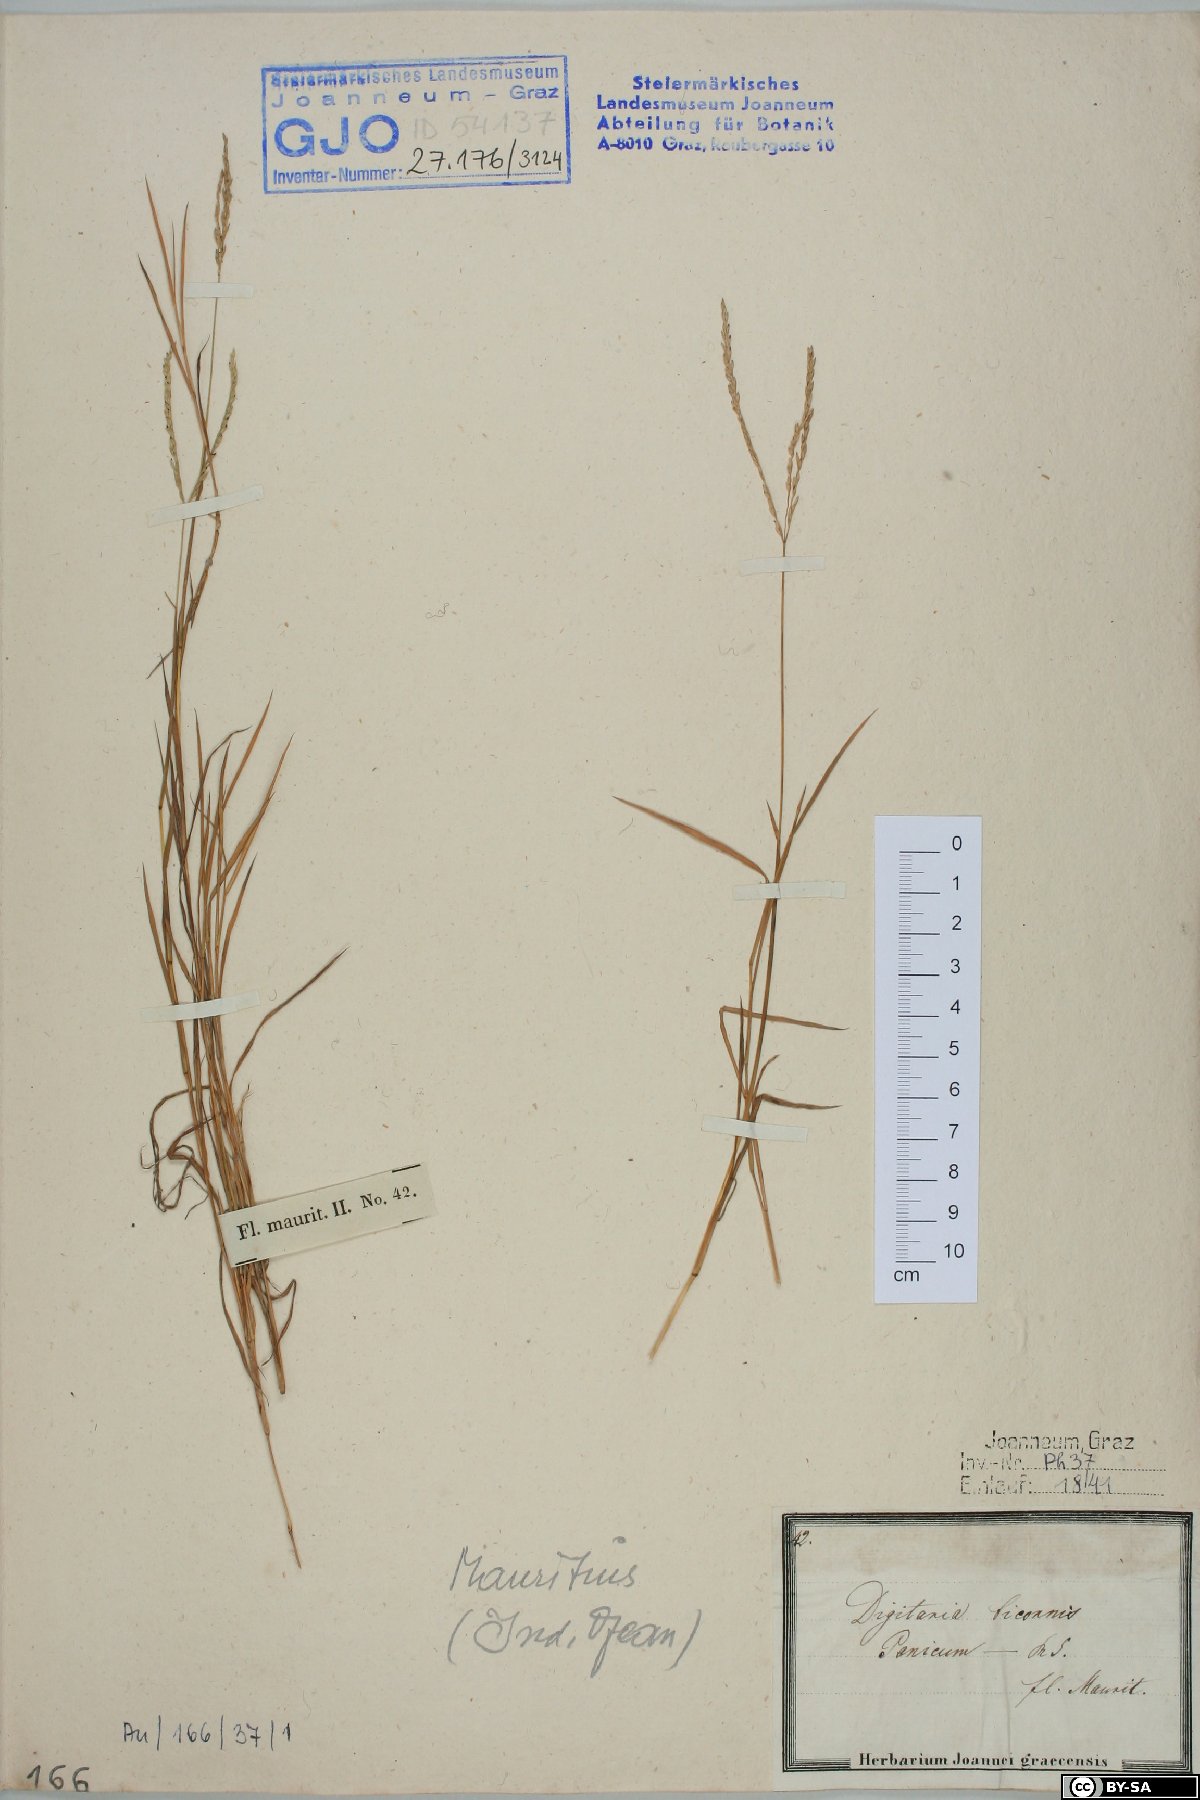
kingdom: Plantae
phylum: Tracheophyta
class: Liliopsida
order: Poales
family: Poaceae
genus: Digitaria
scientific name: Digitaria bicornis
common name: Asian crabgrass
